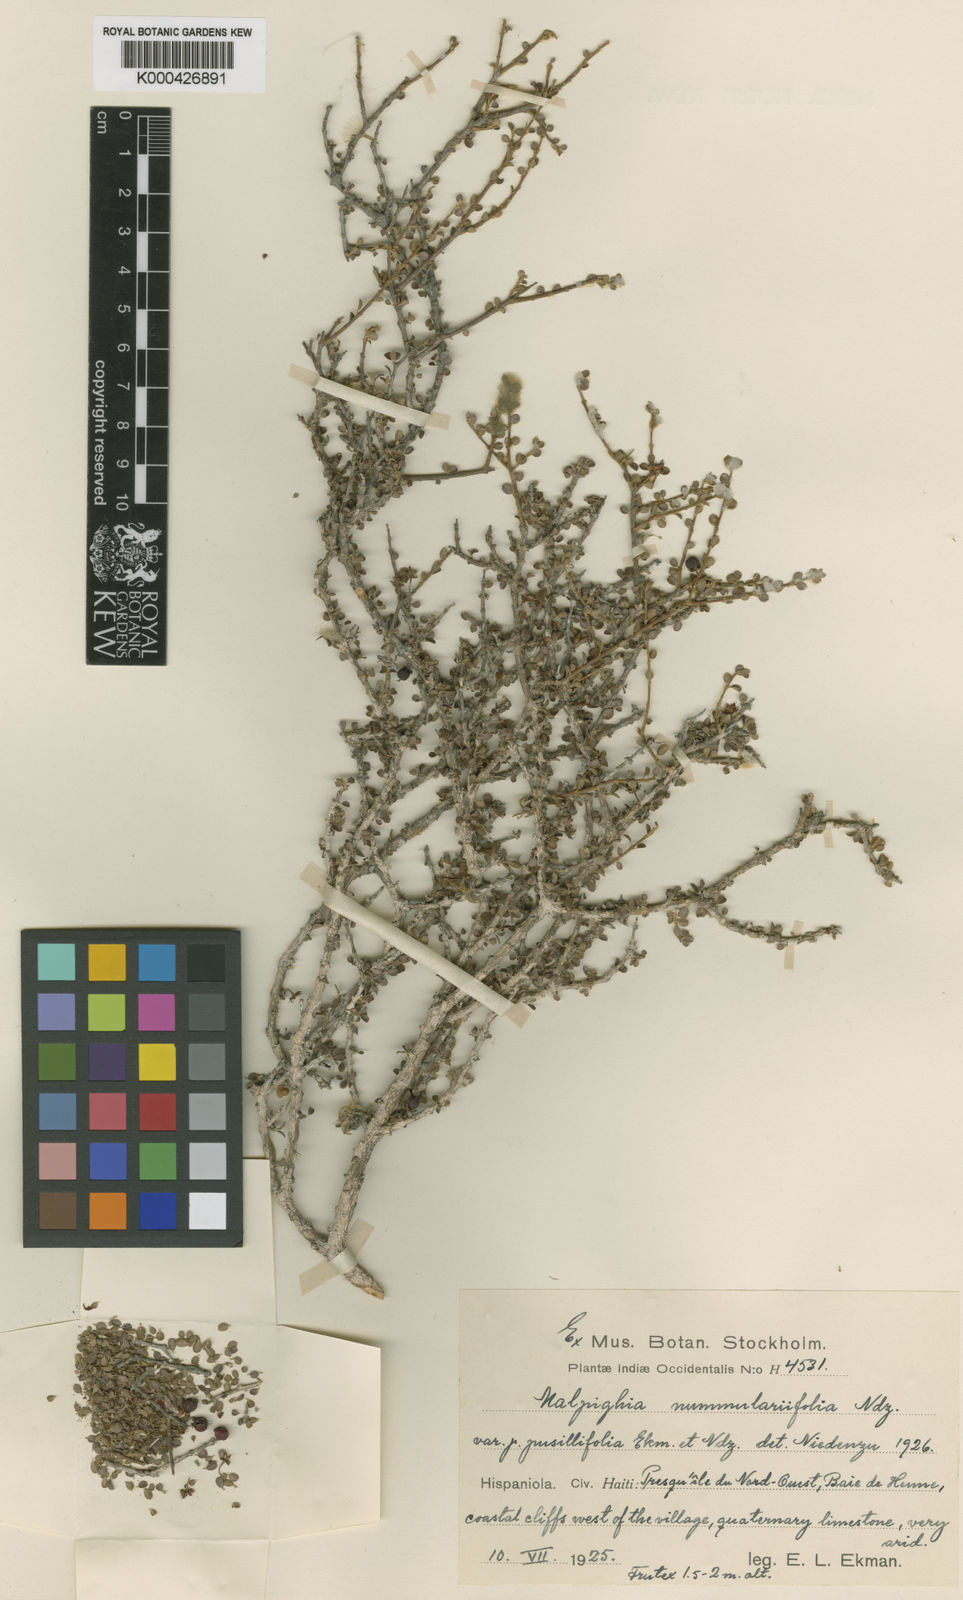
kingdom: Plantae
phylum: Tracheophyta
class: Magnoliopsida
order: Malpighiales
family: Malpighiaceae
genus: Malpighia
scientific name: Malpighia nummulariifolia
